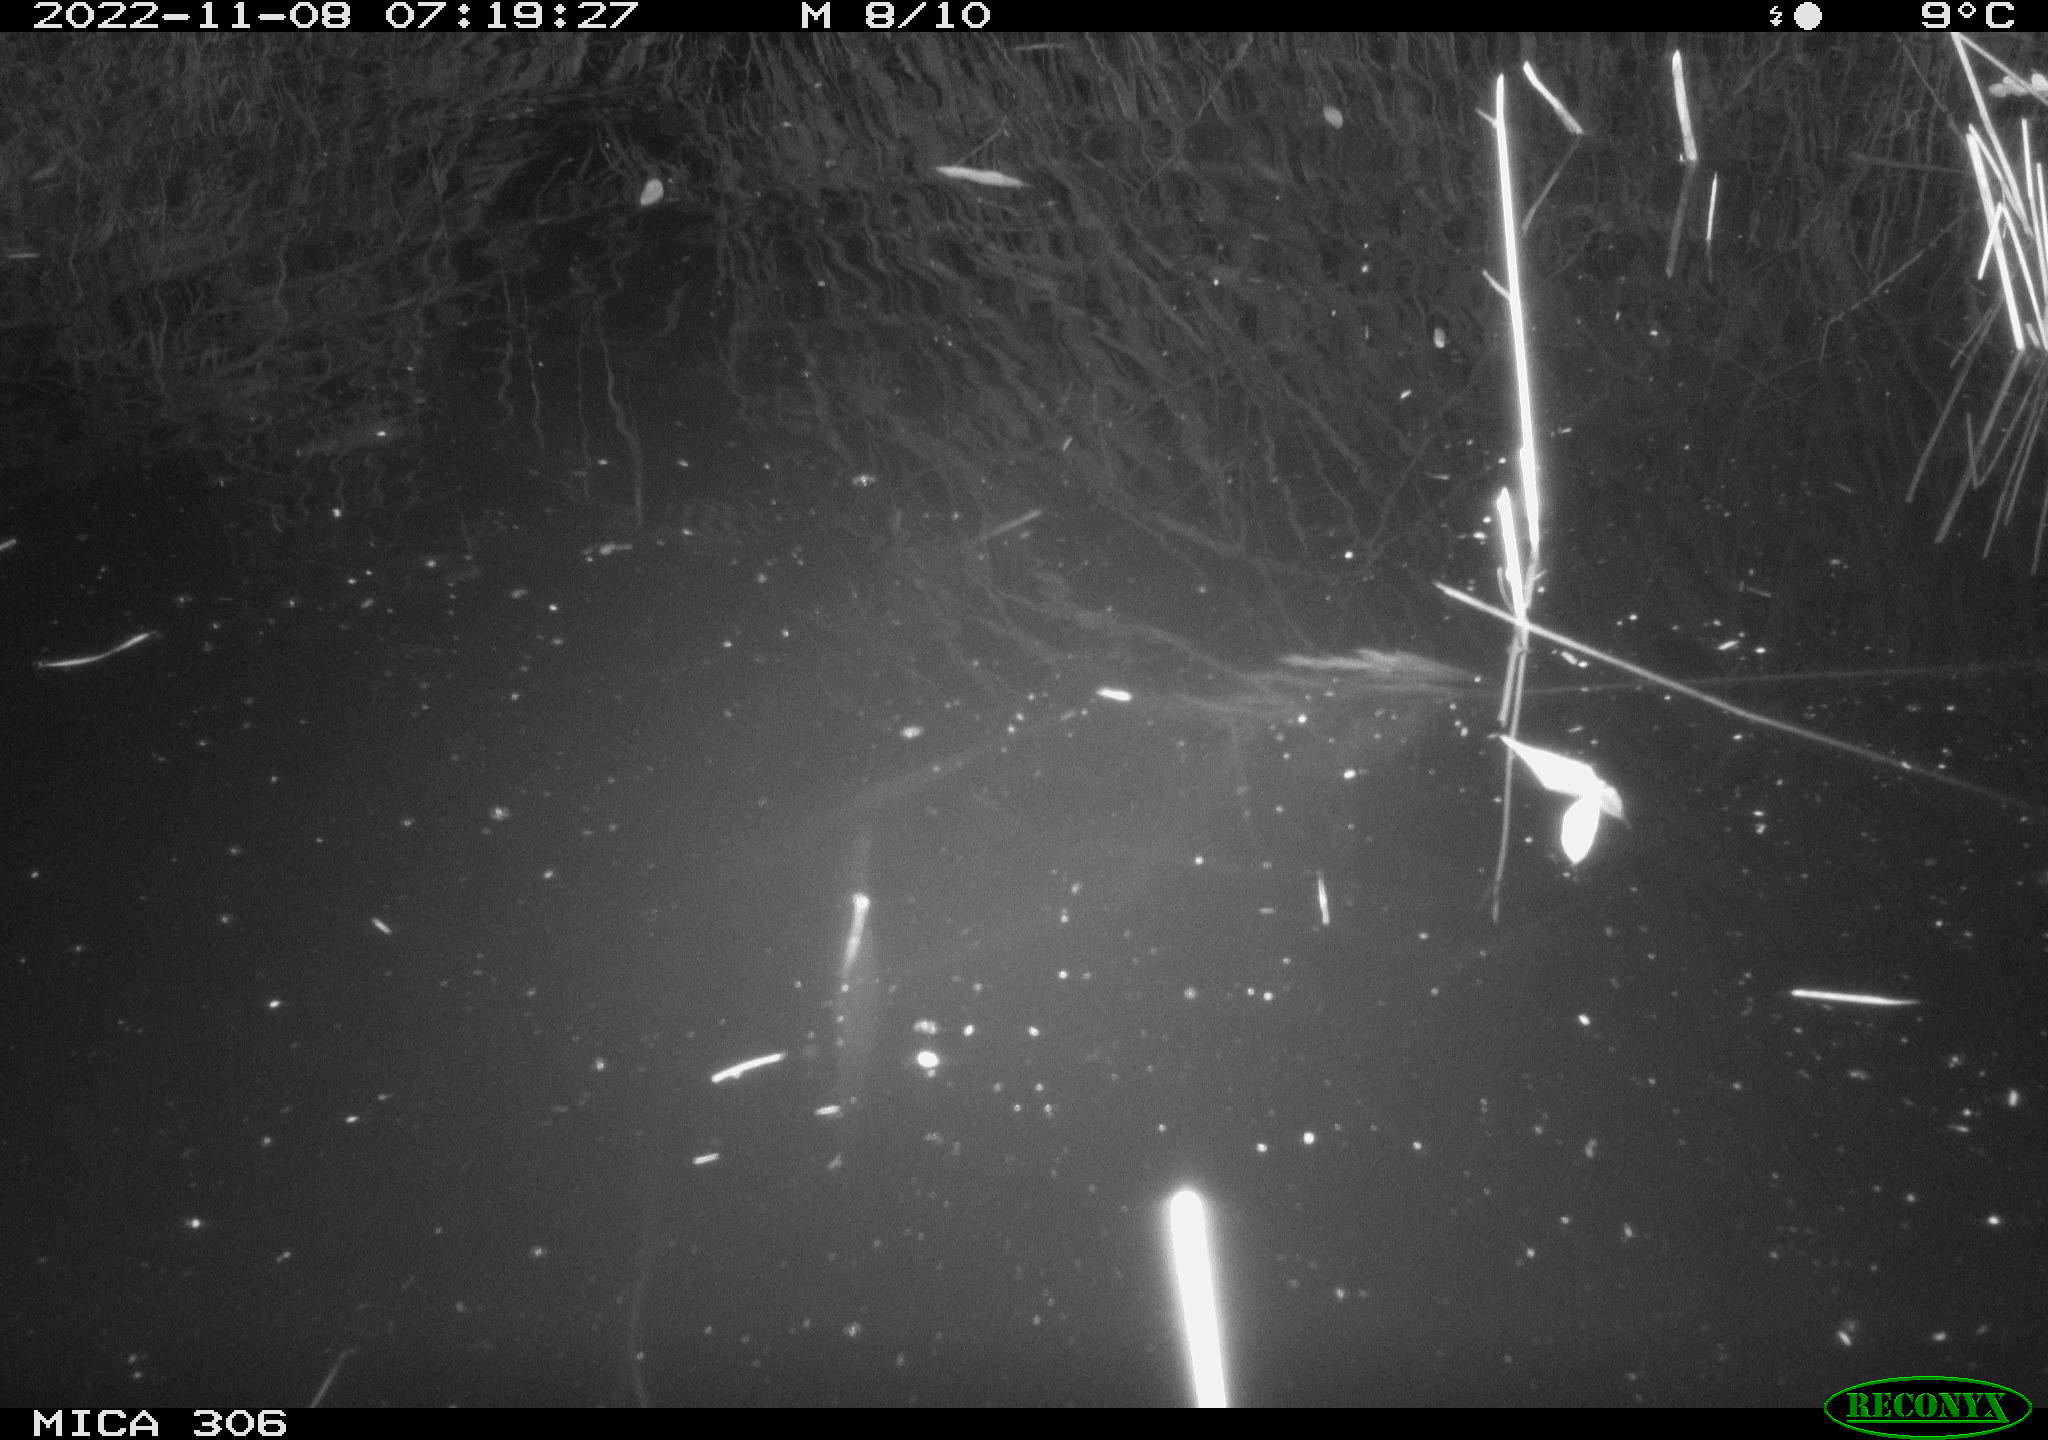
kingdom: Animalia
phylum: Chordata
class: Mammalia
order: Rodentia
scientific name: Rodentia
